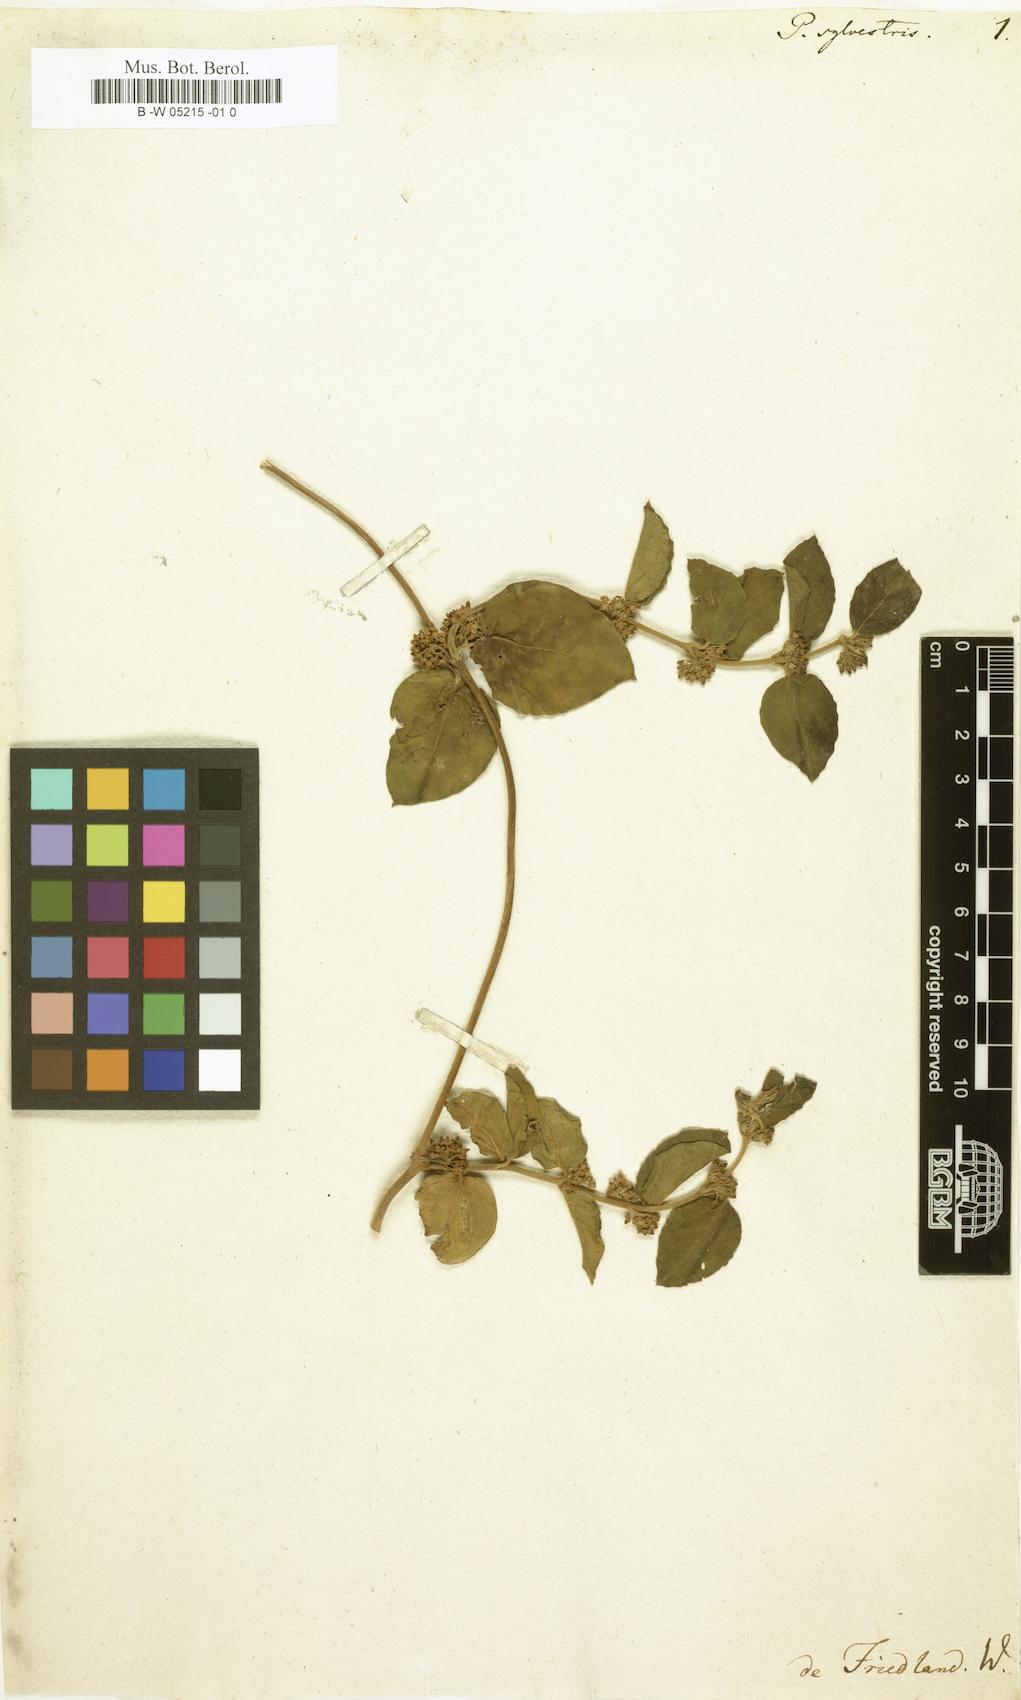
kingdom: Plantae
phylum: Tracheophyta
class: Magnoliopsida
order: Gentianales
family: Apocynaceae
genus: Gymnema
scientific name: Gymnema sylvestre
